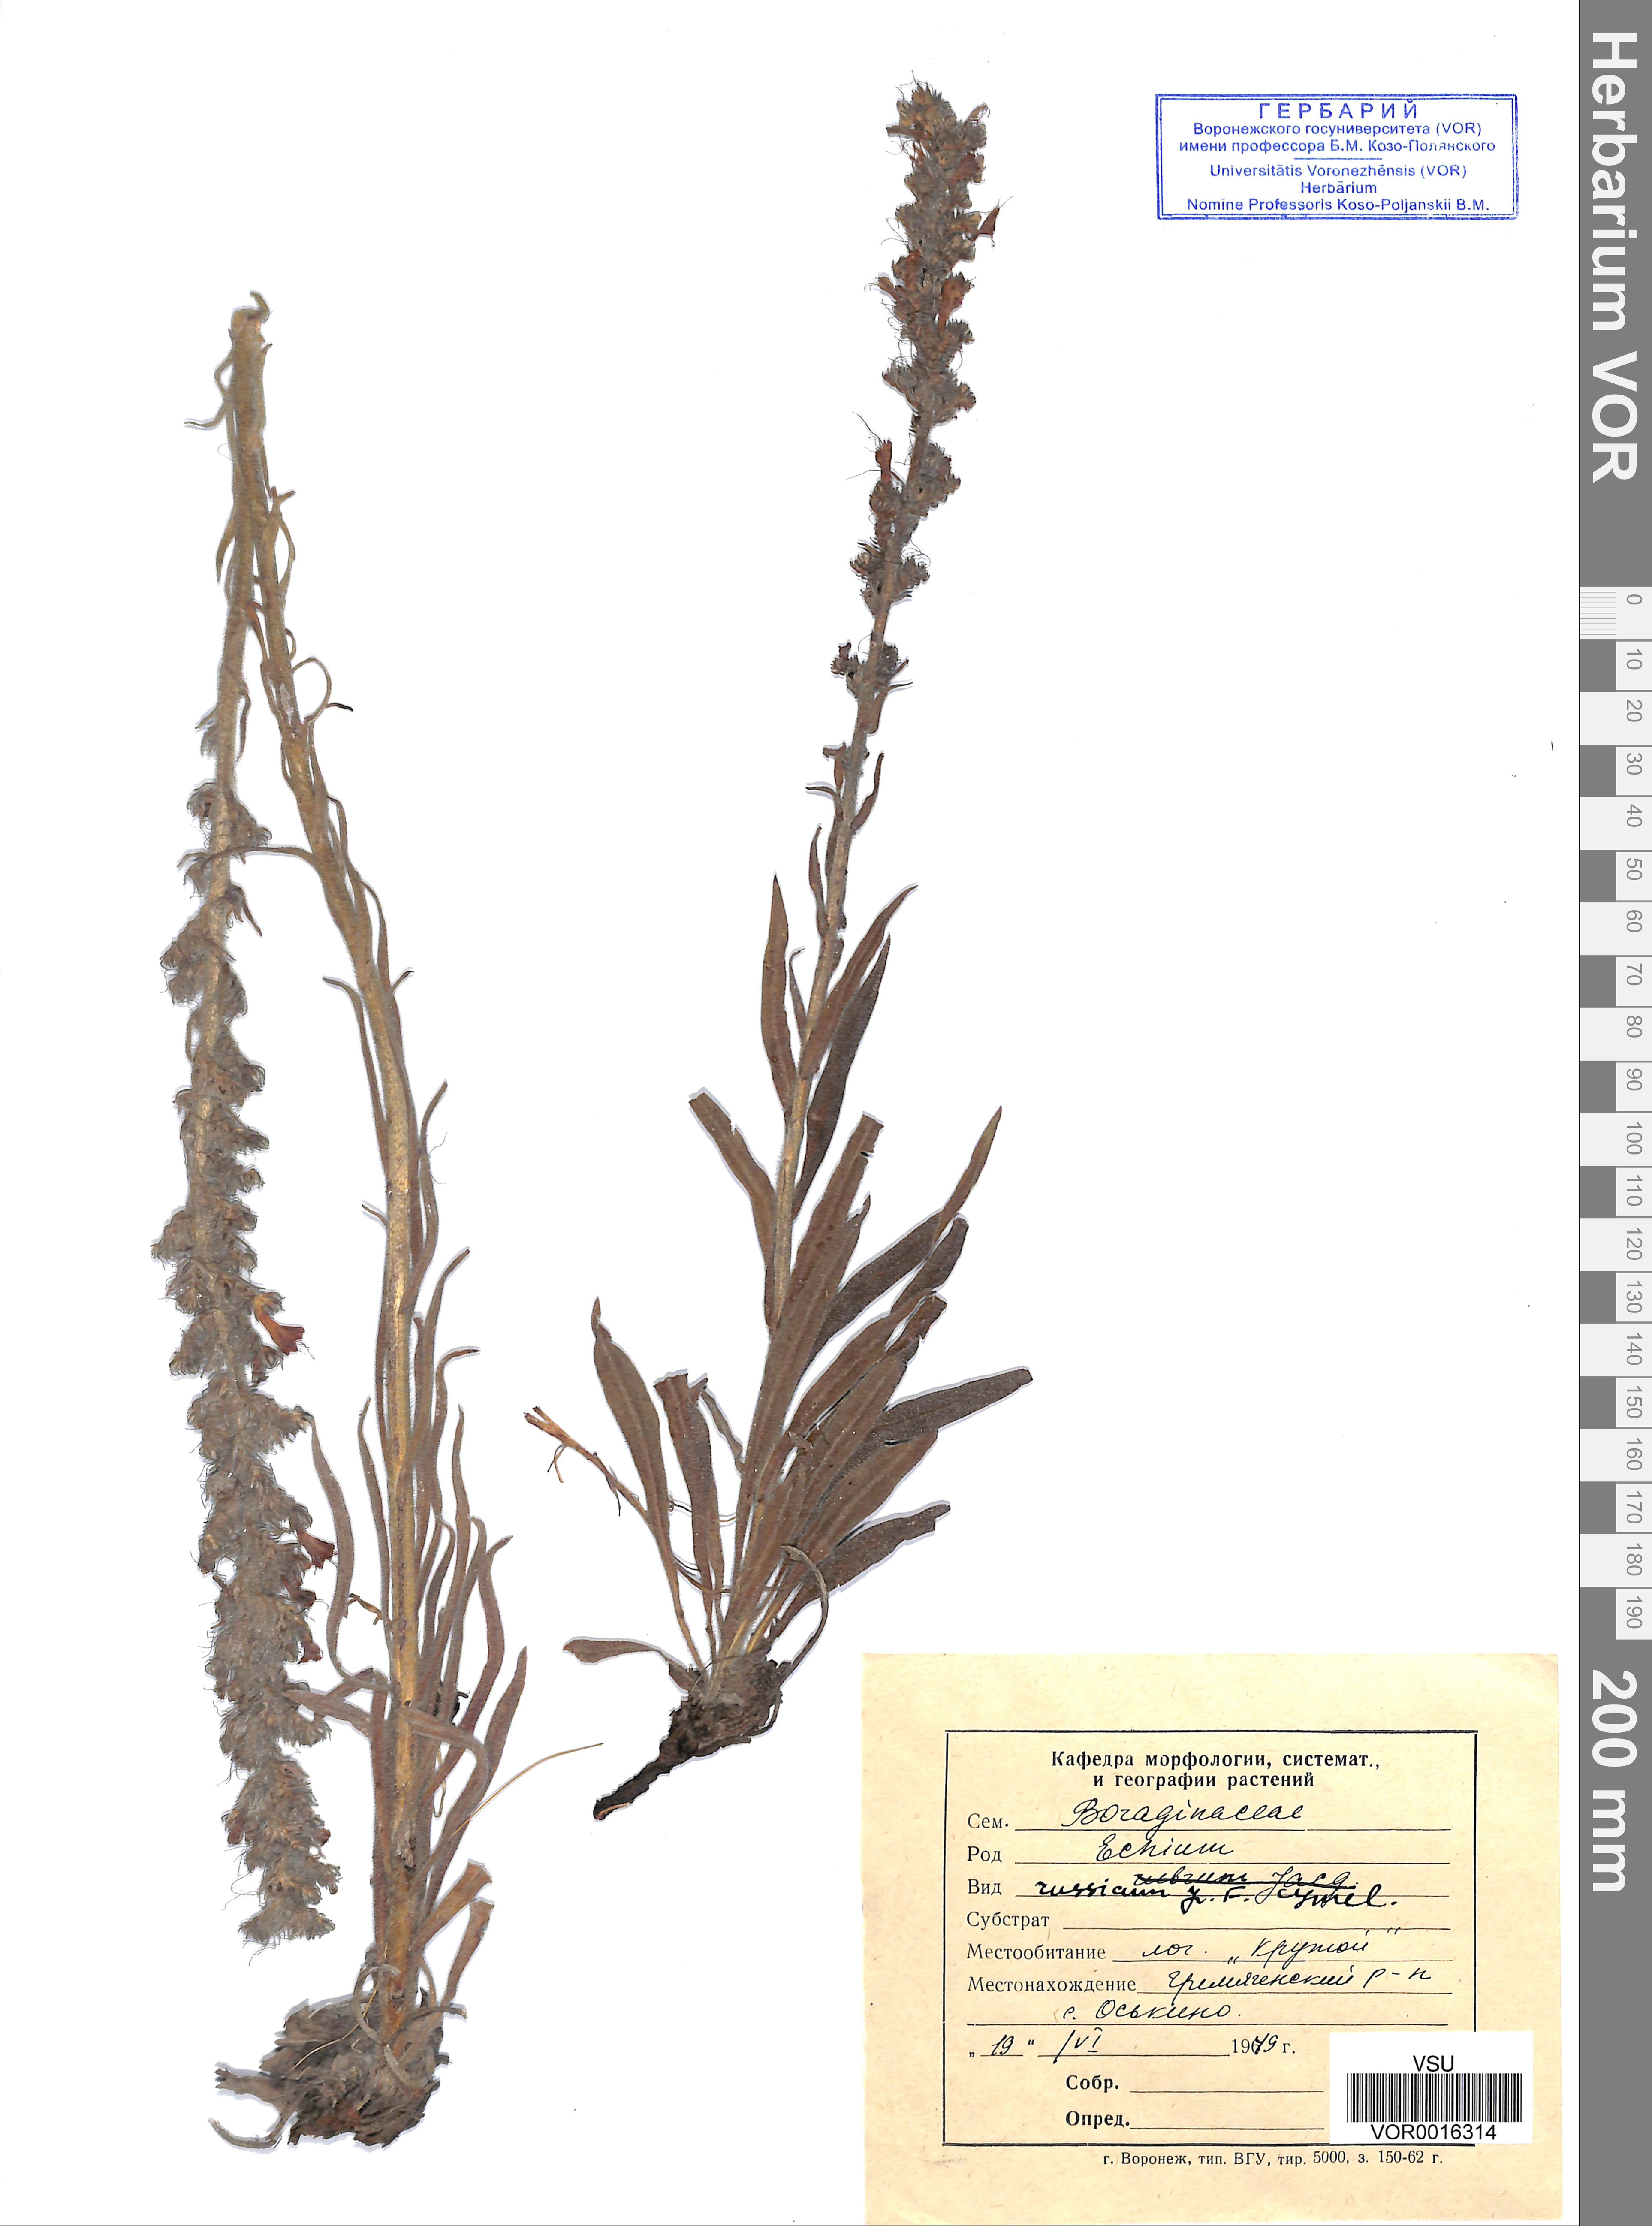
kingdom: Plantae
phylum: Tracheophyta
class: Magnoliopsida
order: Boraginales
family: Boraginaceae
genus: Pontechium
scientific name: Pontechium maculatum
